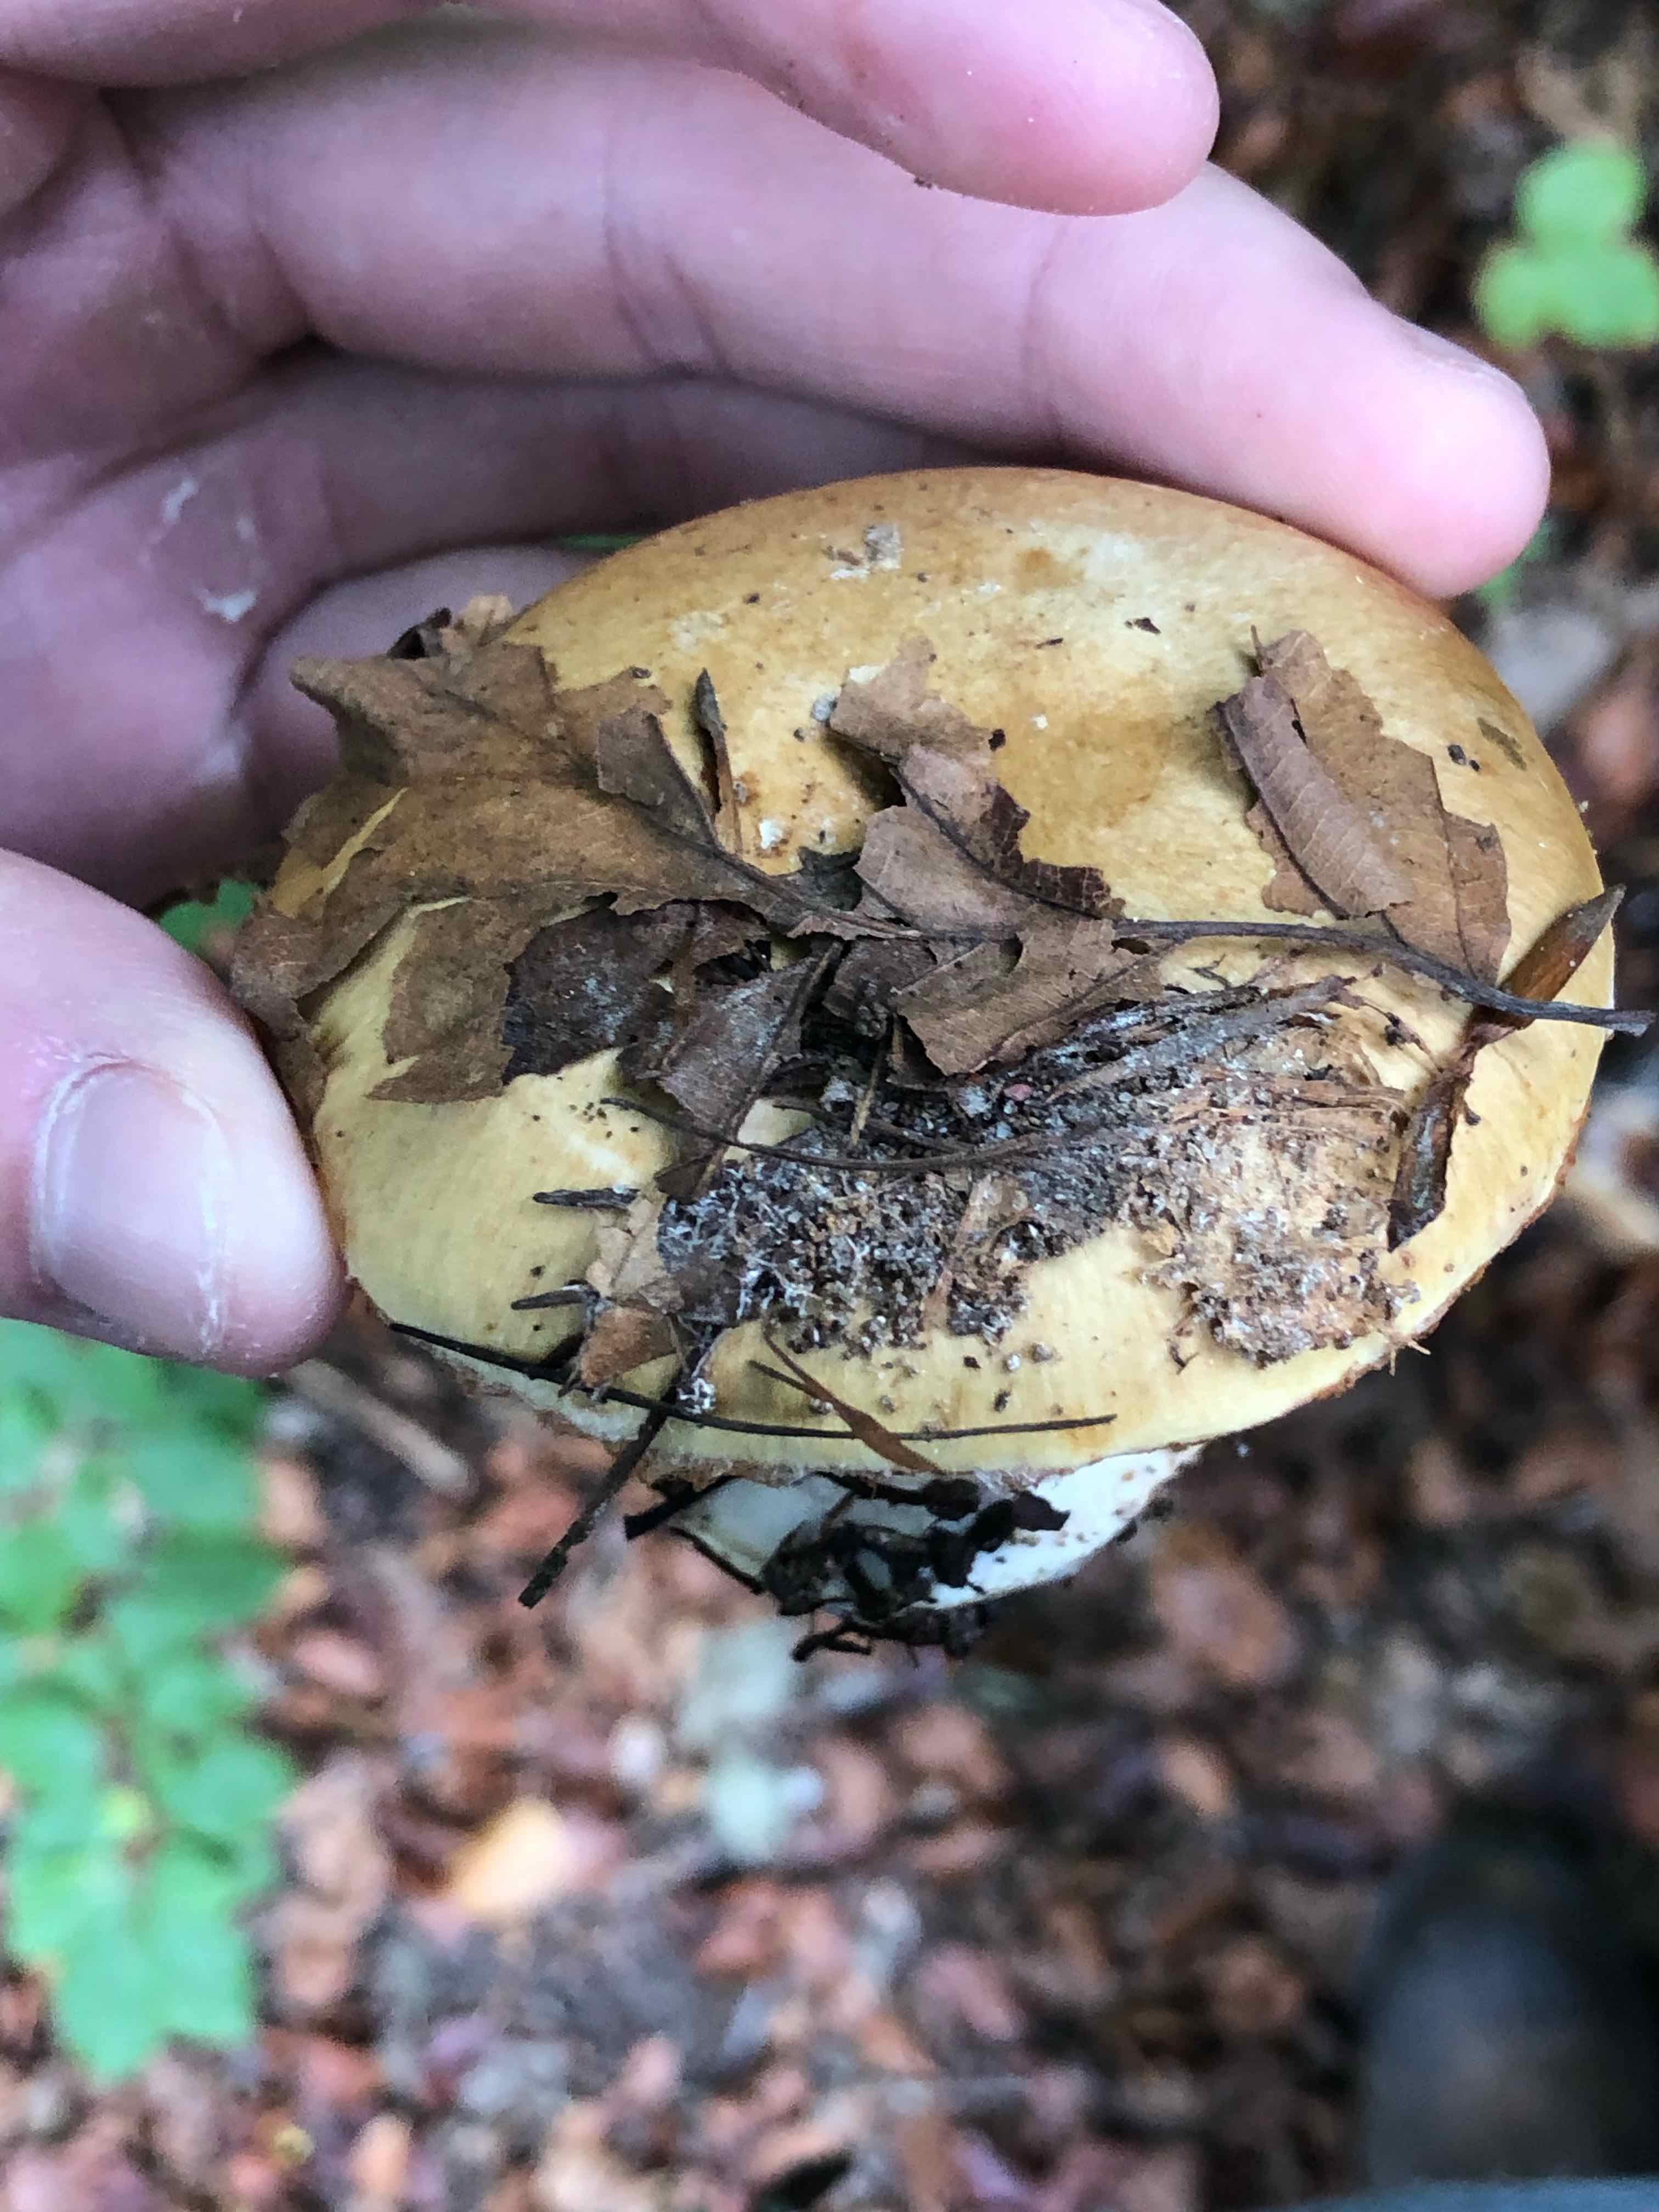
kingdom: Fungi
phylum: Basidiomycota
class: Agaricomycetes
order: Agaricales
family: Cortinariaceae
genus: Cortinarius
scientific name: Cortinarius anserinus
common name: bøge-slørhat
